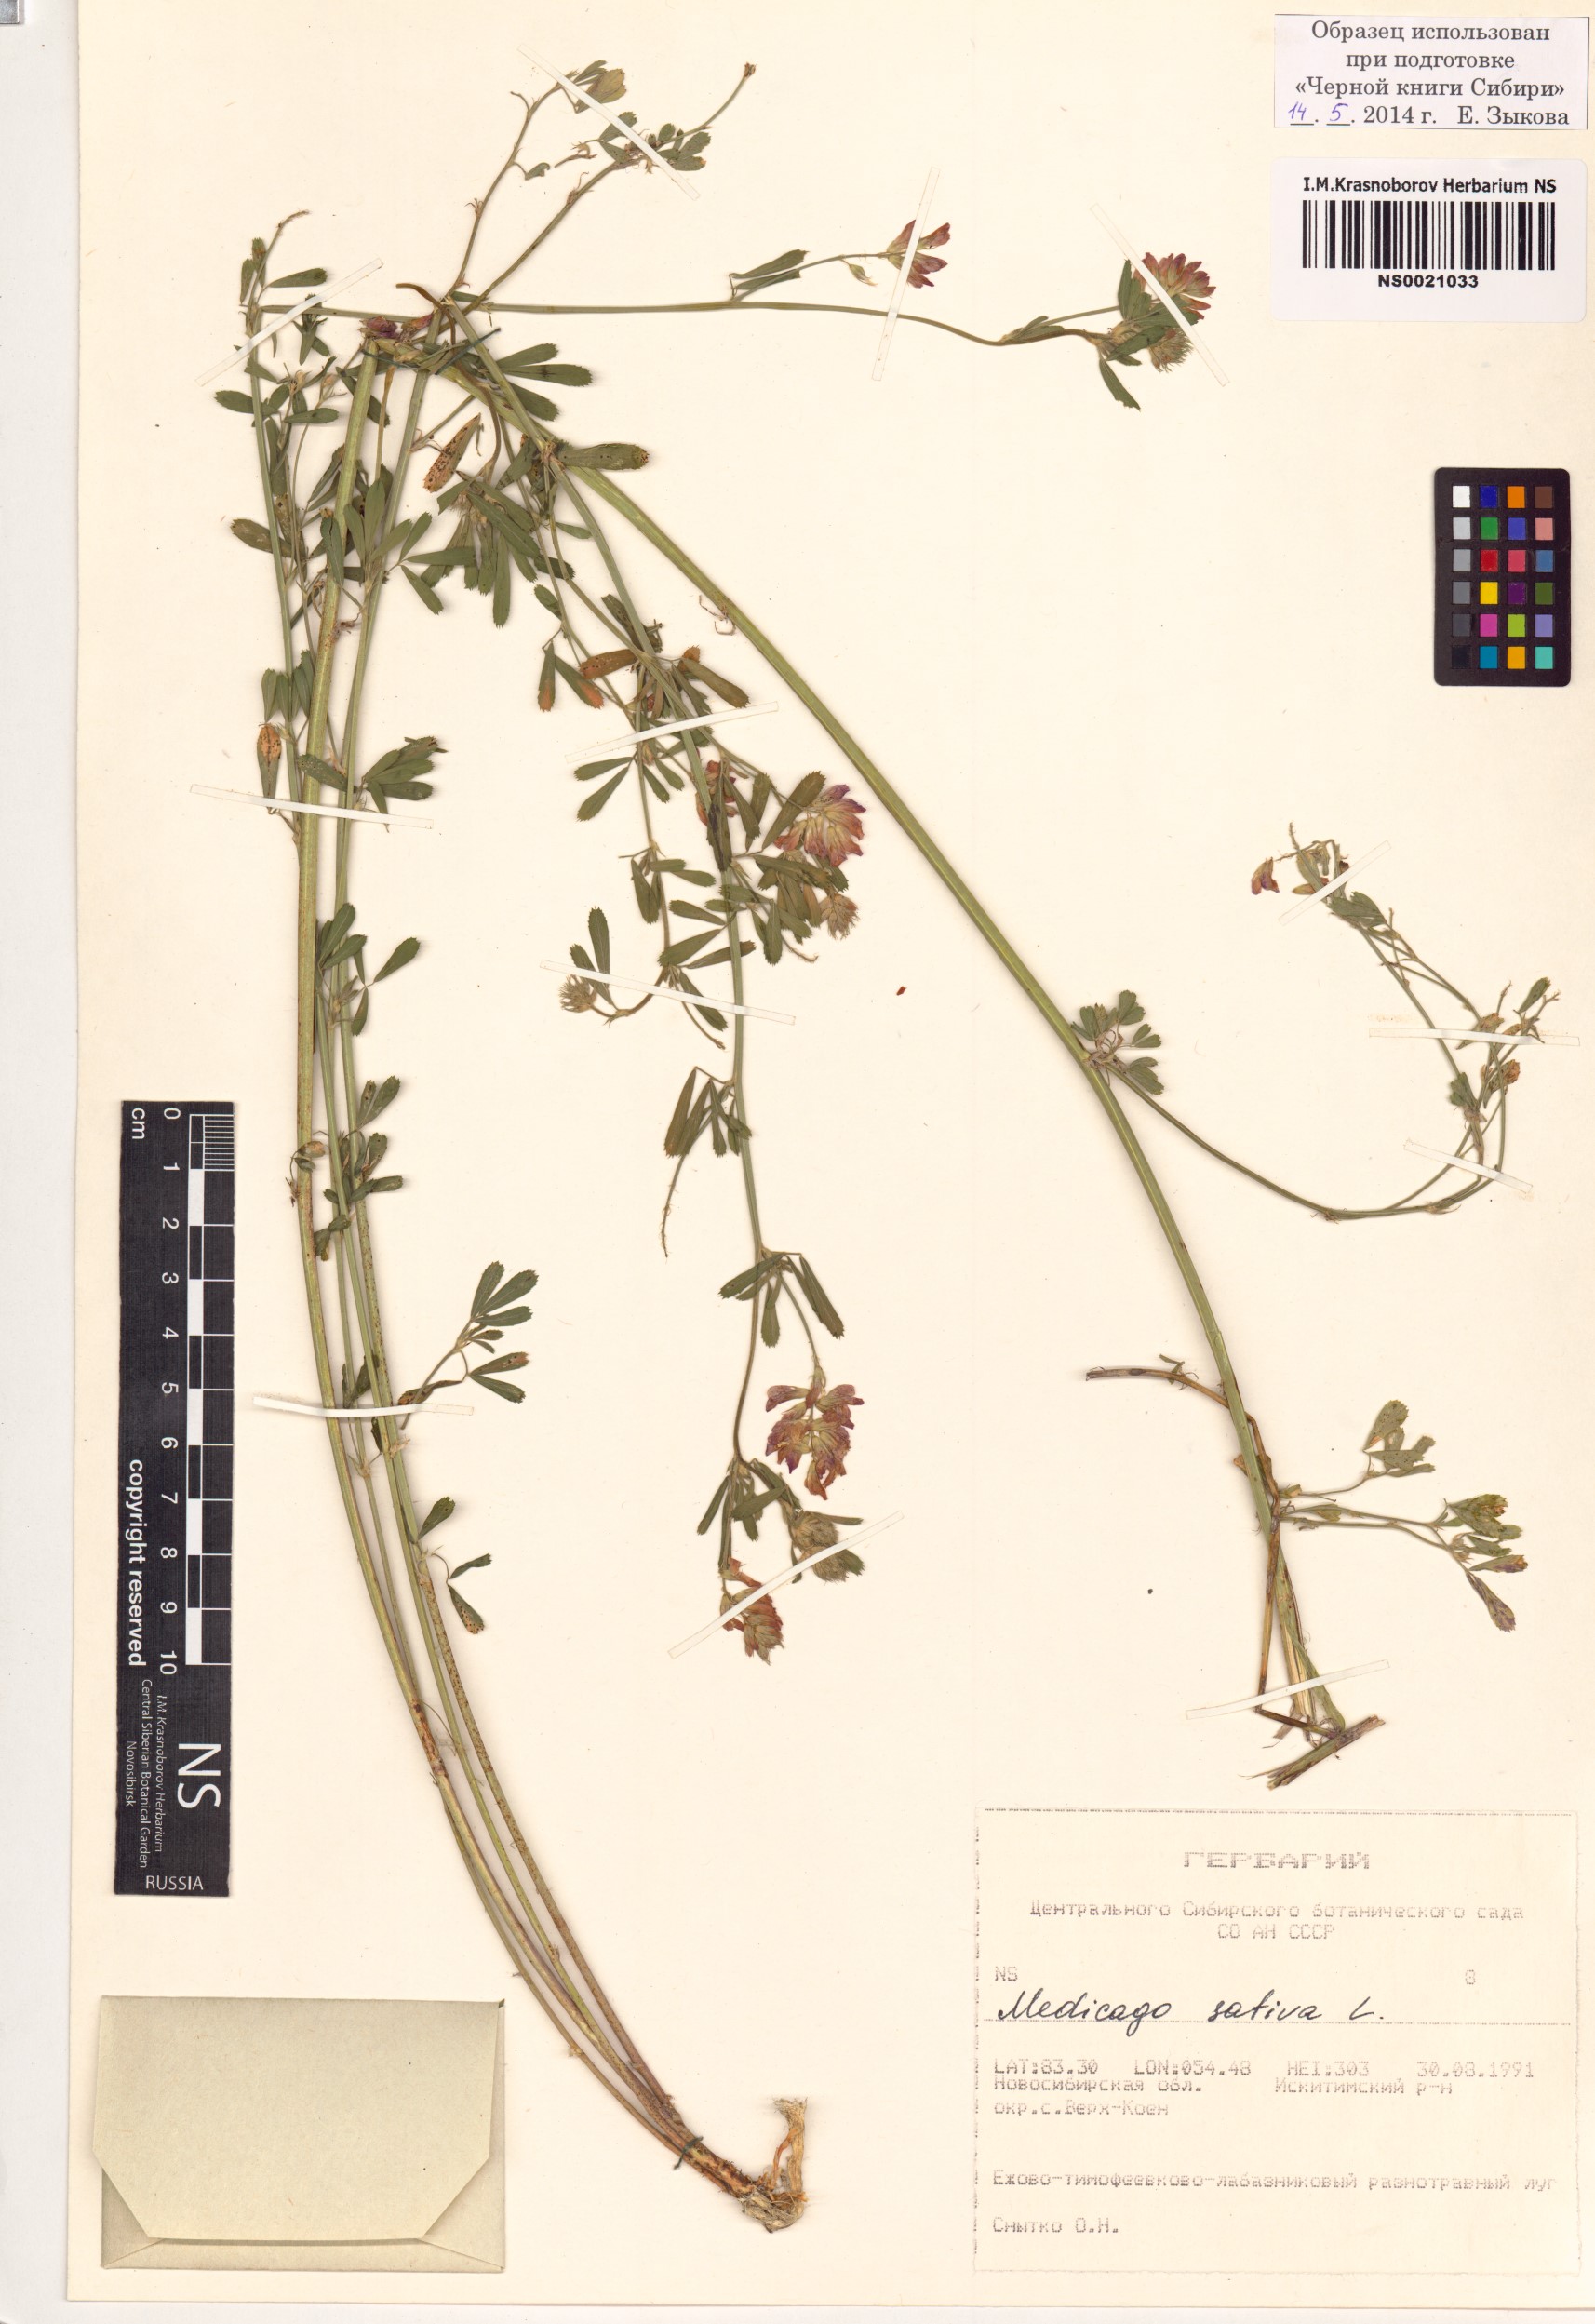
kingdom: Plantae
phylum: Tracheophyta
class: Magnoliopsida
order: Fabales
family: Fabaceae
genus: Medicago
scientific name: Medicago sativa
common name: Alfalfa
